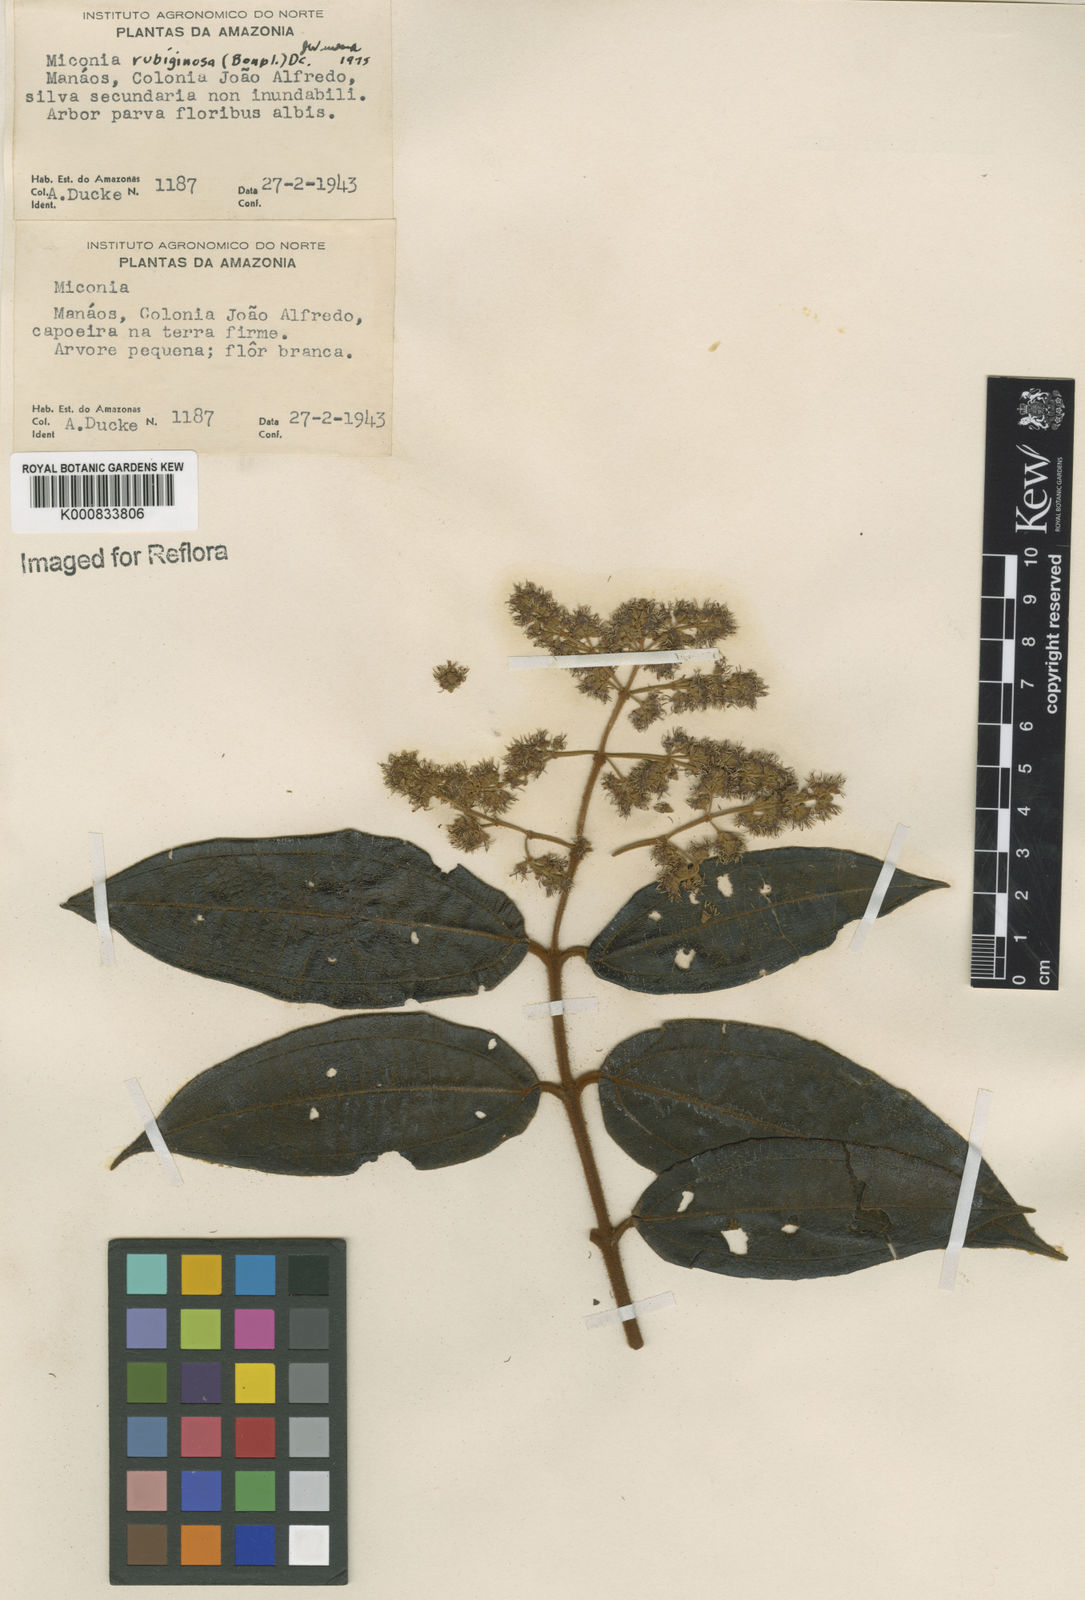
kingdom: Plantae
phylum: Tracheophyta
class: Magnoliopsida
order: Myrtales
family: Melastomataceae
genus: Miconia
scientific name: Miconia rubiginosa
